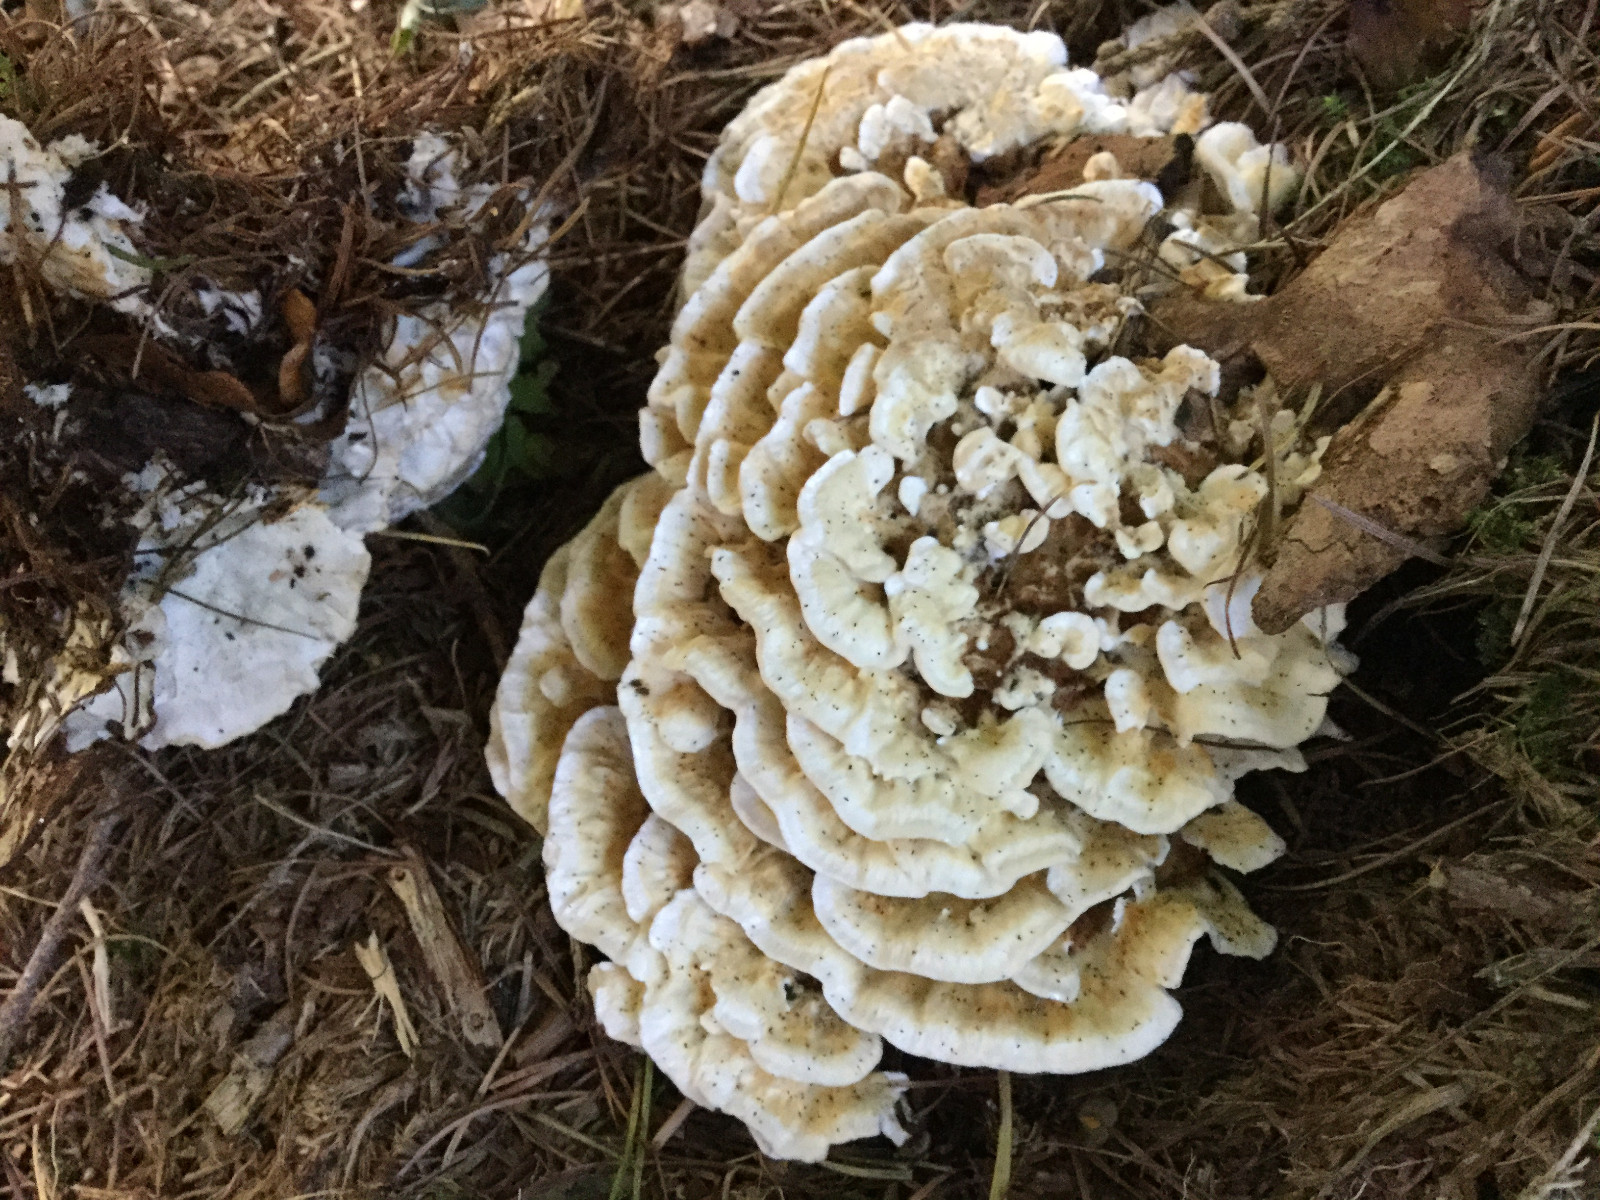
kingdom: Fungi
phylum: Basidiomycota
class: Agaricomycetes
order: Polyporales
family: Dacryobolaceae
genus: Oligoporus
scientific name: Oligoporus wakefieldiae
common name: række-kødporesvamp
